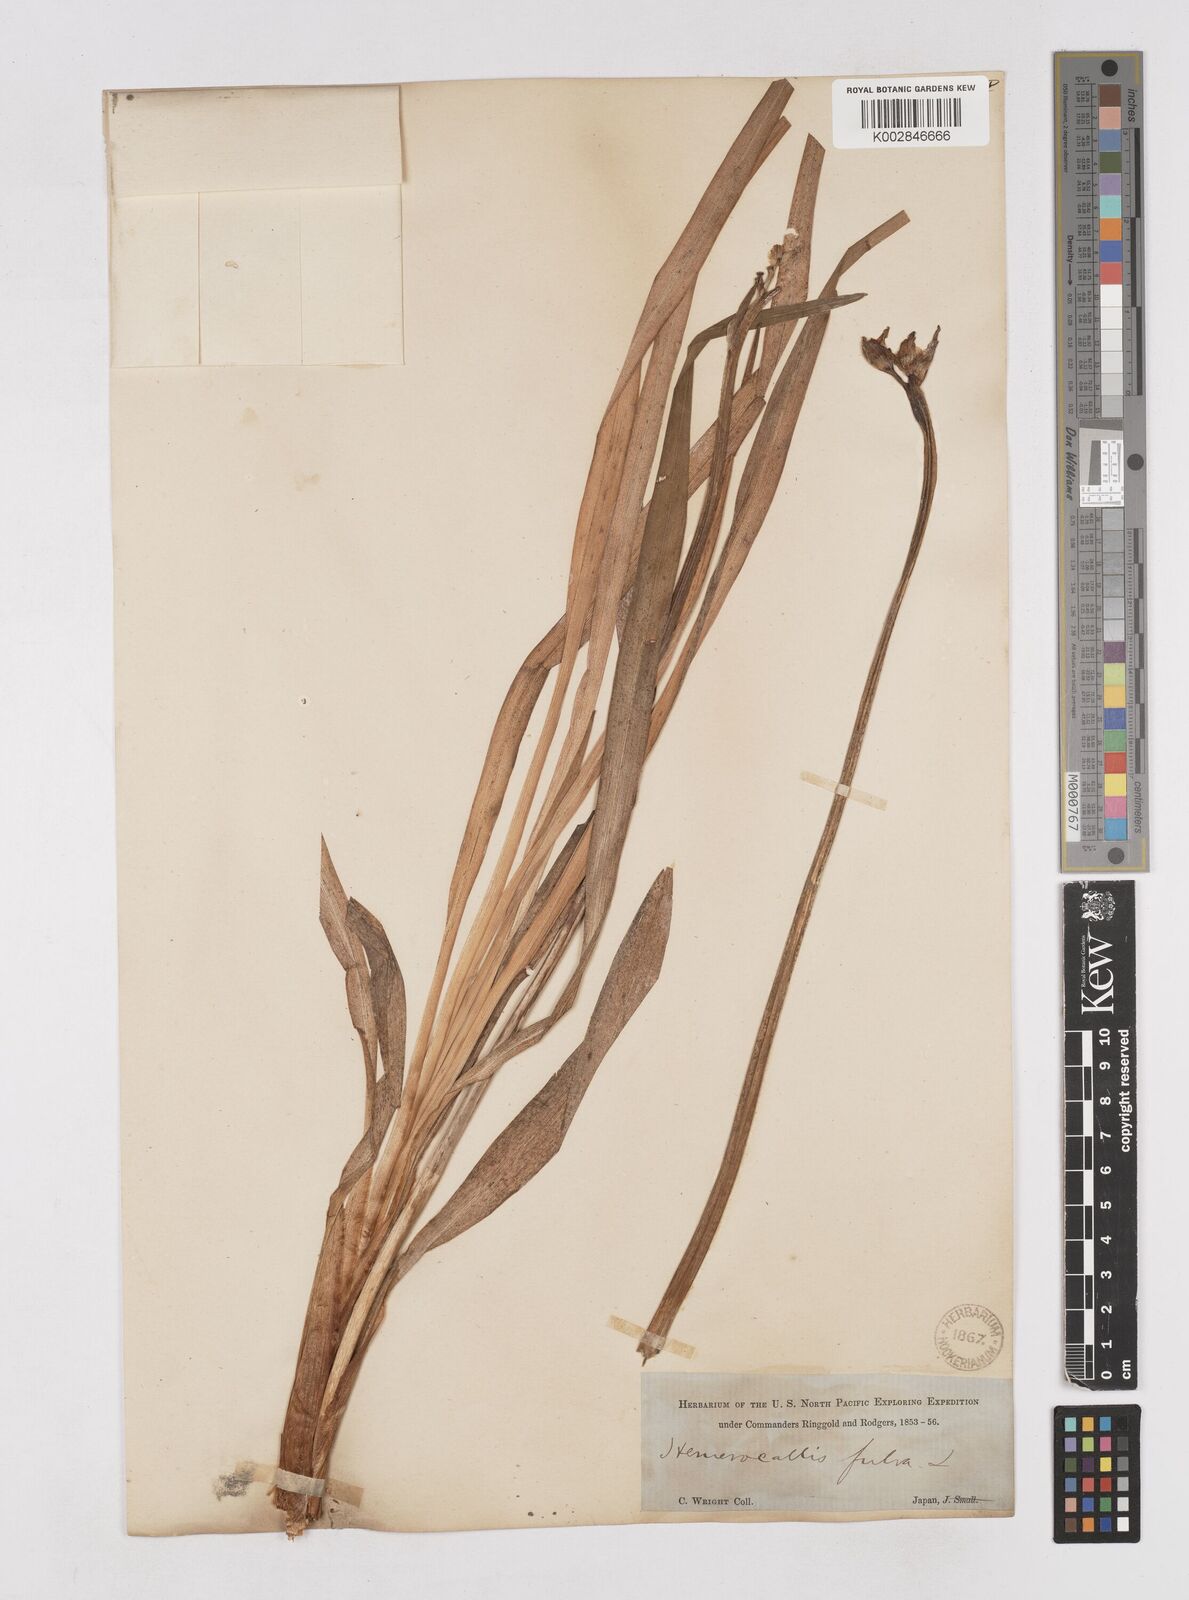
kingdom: Plantae
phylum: Tracheophyta
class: Liliopsida
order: Asparagales
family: Asphodelaceae
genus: Hemerocallis
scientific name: Hemerocallis fulva
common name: Orange day-lily
